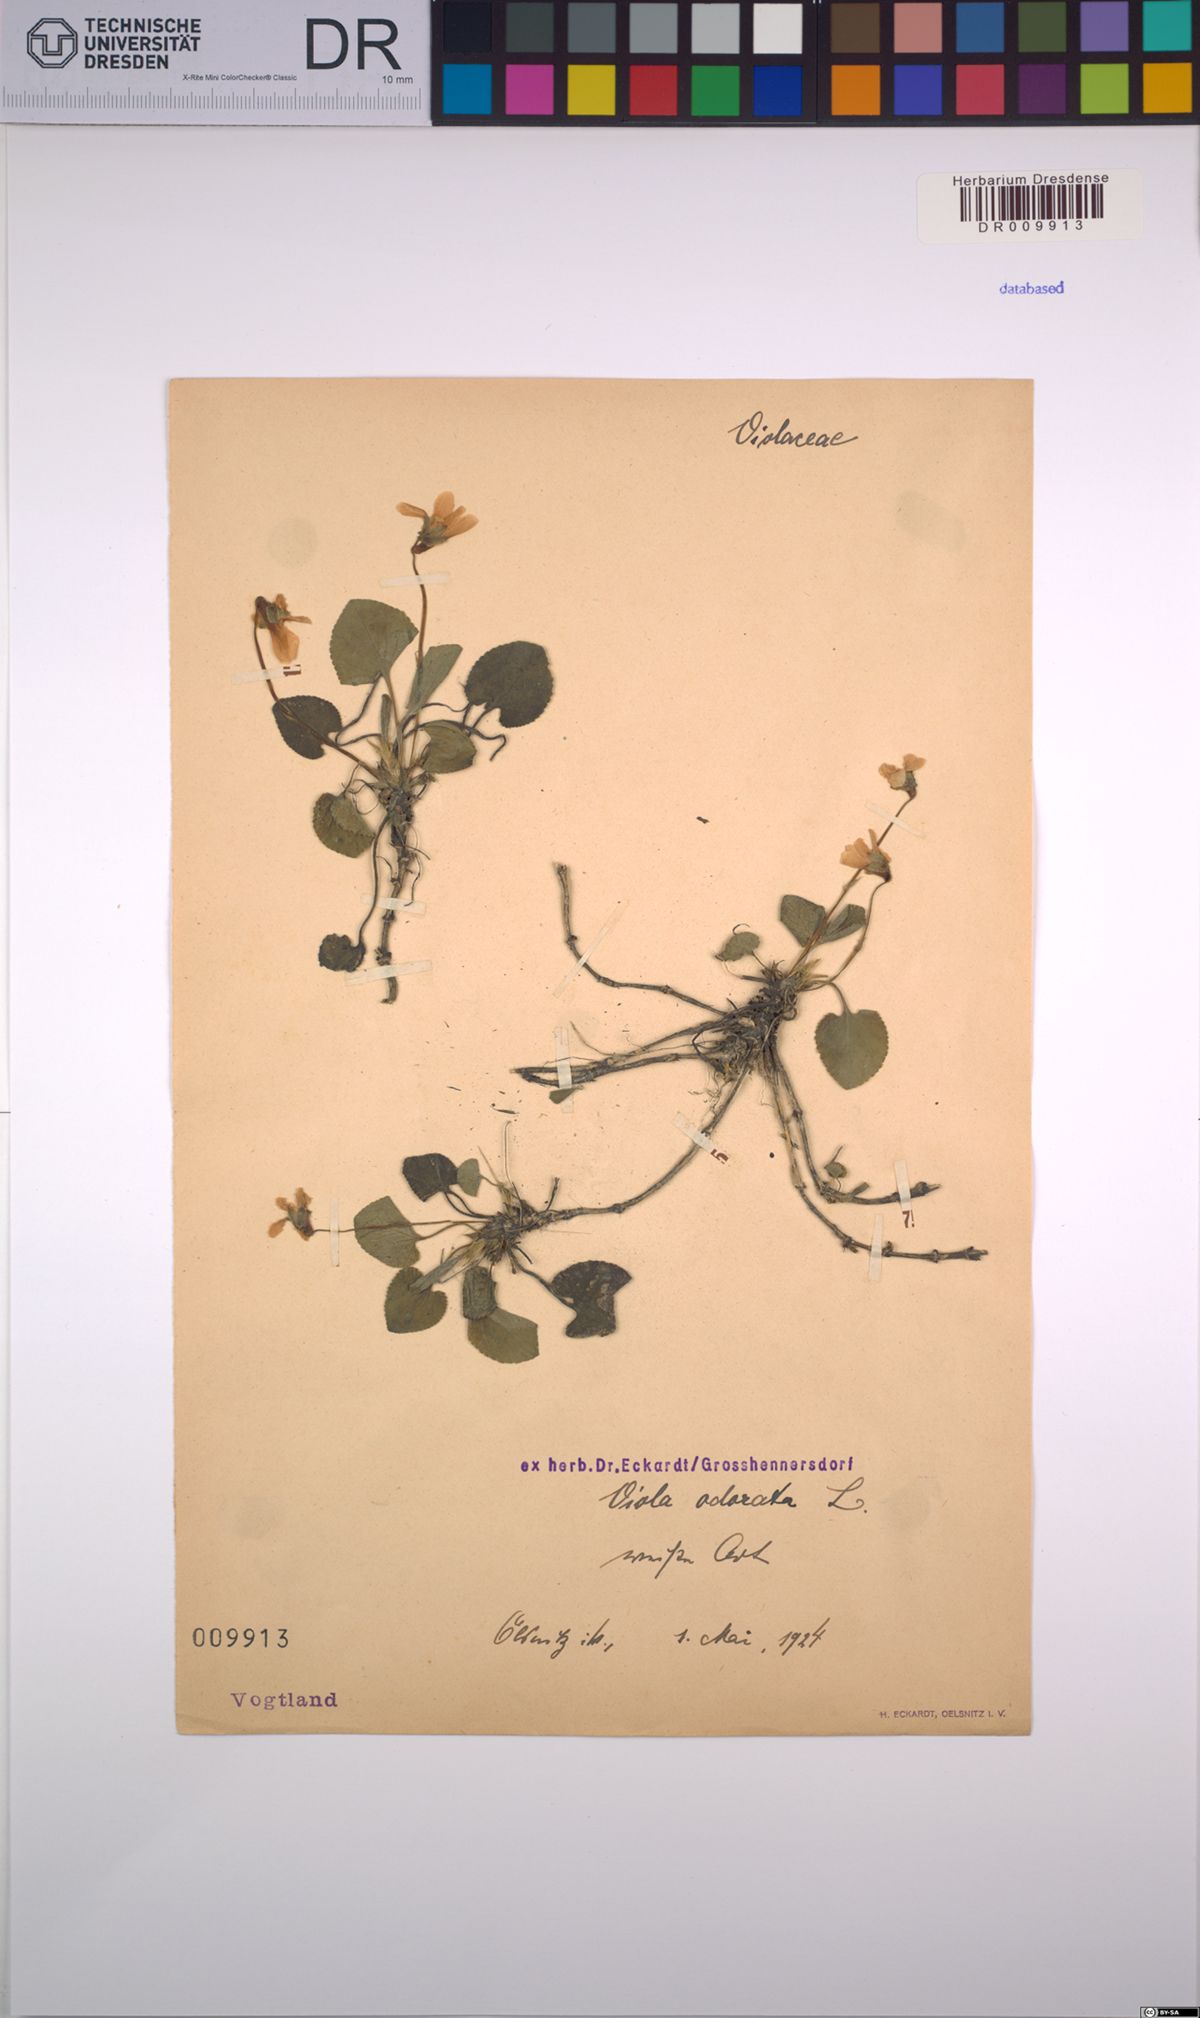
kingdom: Plantae
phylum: Tracheophyta
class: Magnoliopsida
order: Malpighiales
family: Violaceae
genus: Viola
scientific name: Viola odorata
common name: Sweet violet
